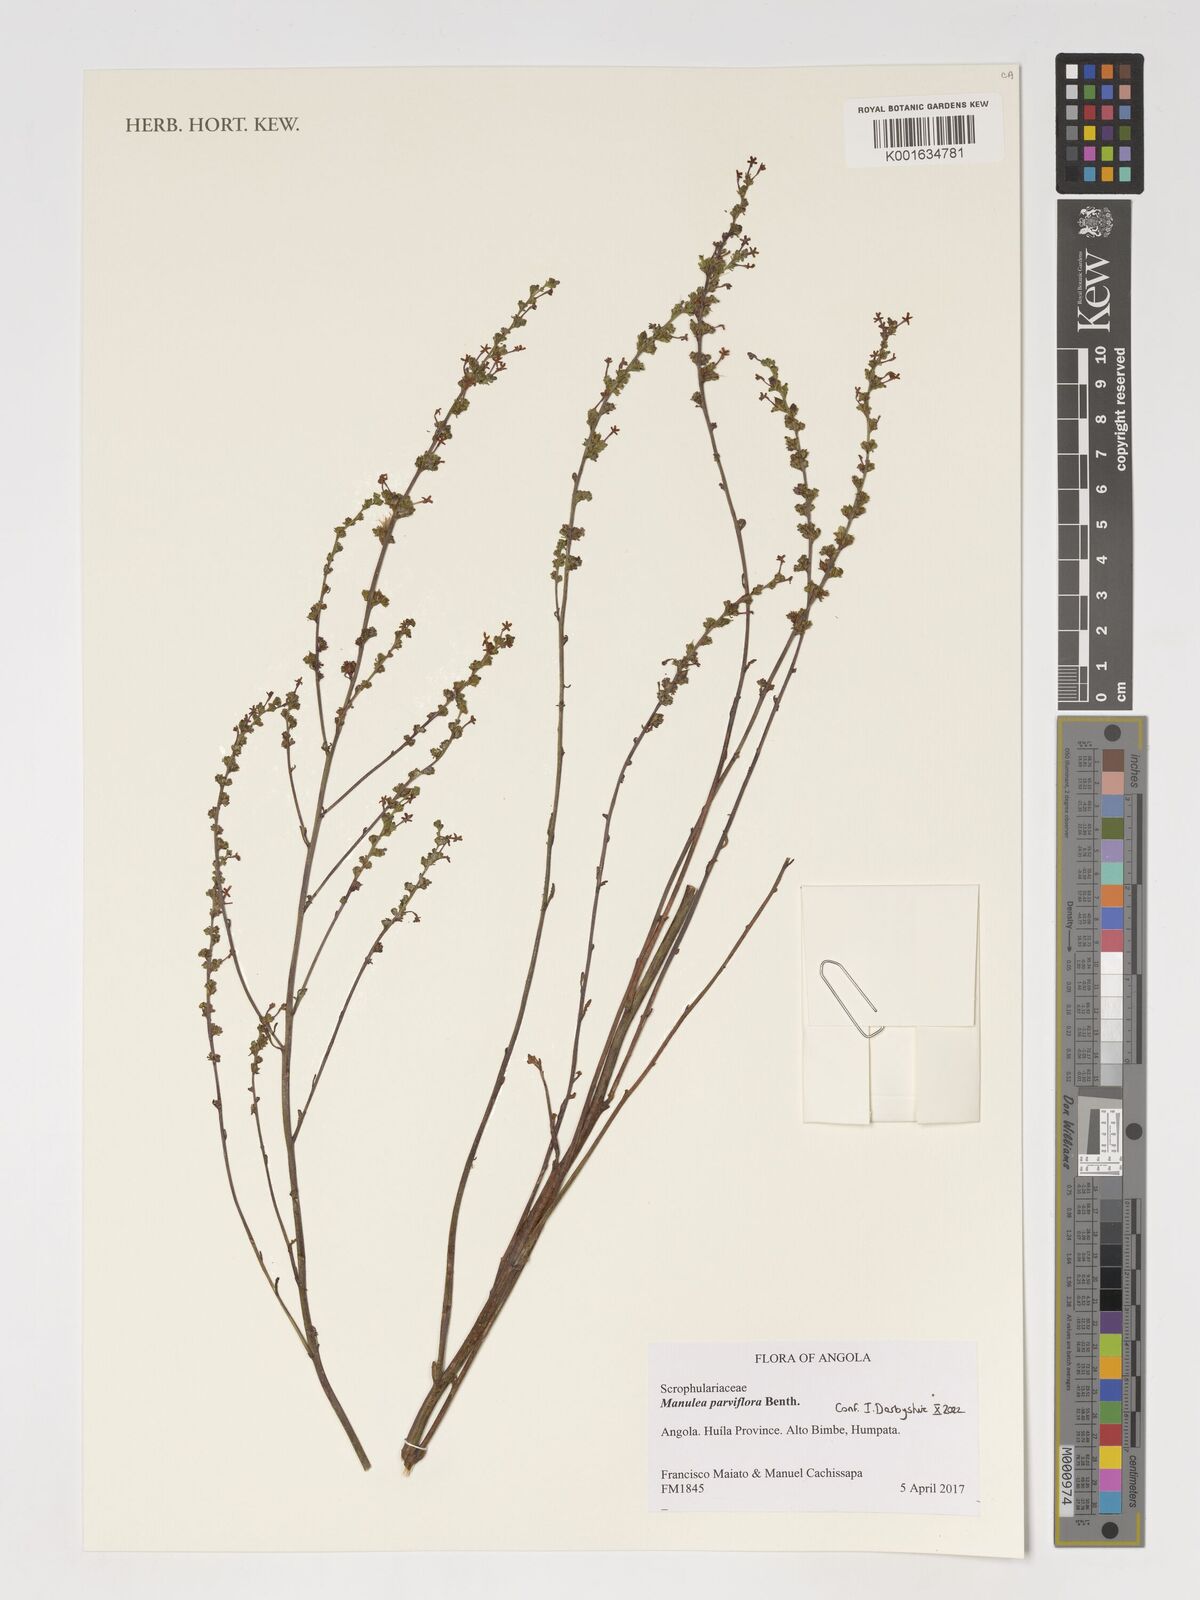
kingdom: Plantae
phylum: Tracheophyta
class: Magnoliopsida
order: Lamiales
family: Scrophulariaceae
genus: Manulea
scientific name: Manulea parviflora
